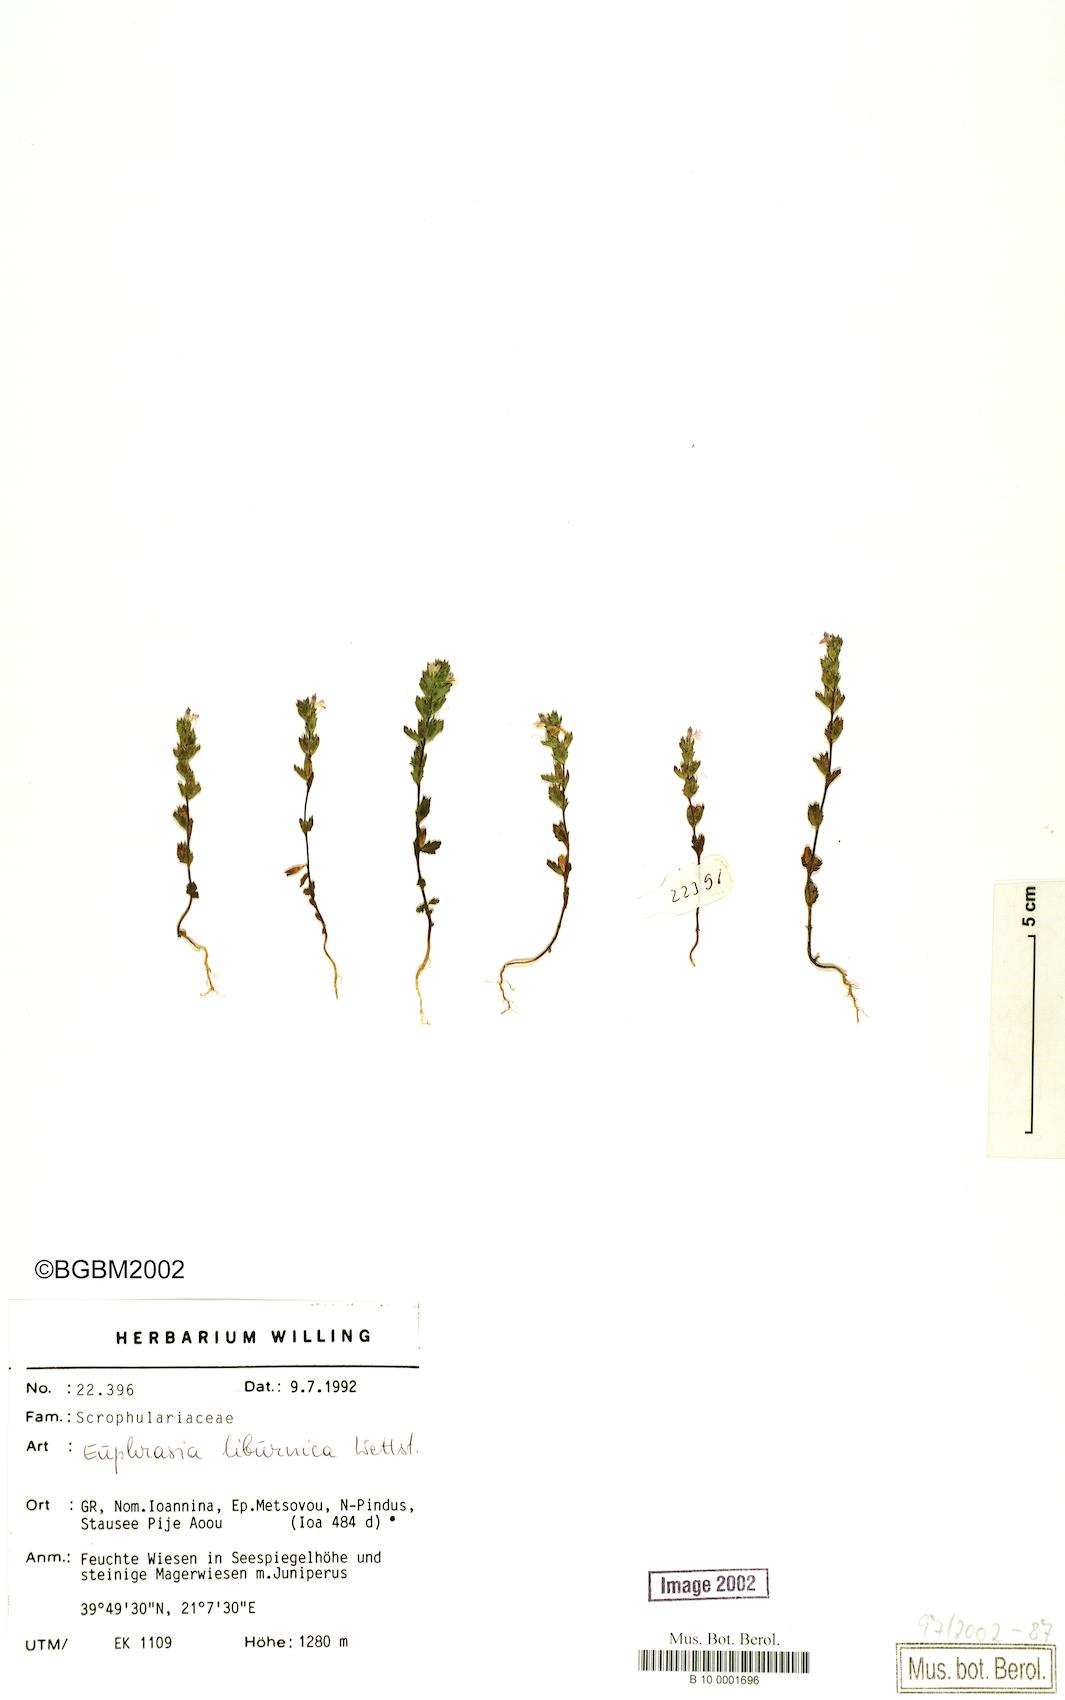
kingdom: Plantae
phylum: Tracheophyta
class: Magnoliopsida
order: Lamiales
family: Orobanchaceae
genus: Euphrasia
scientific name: Euphrasia liburnica
